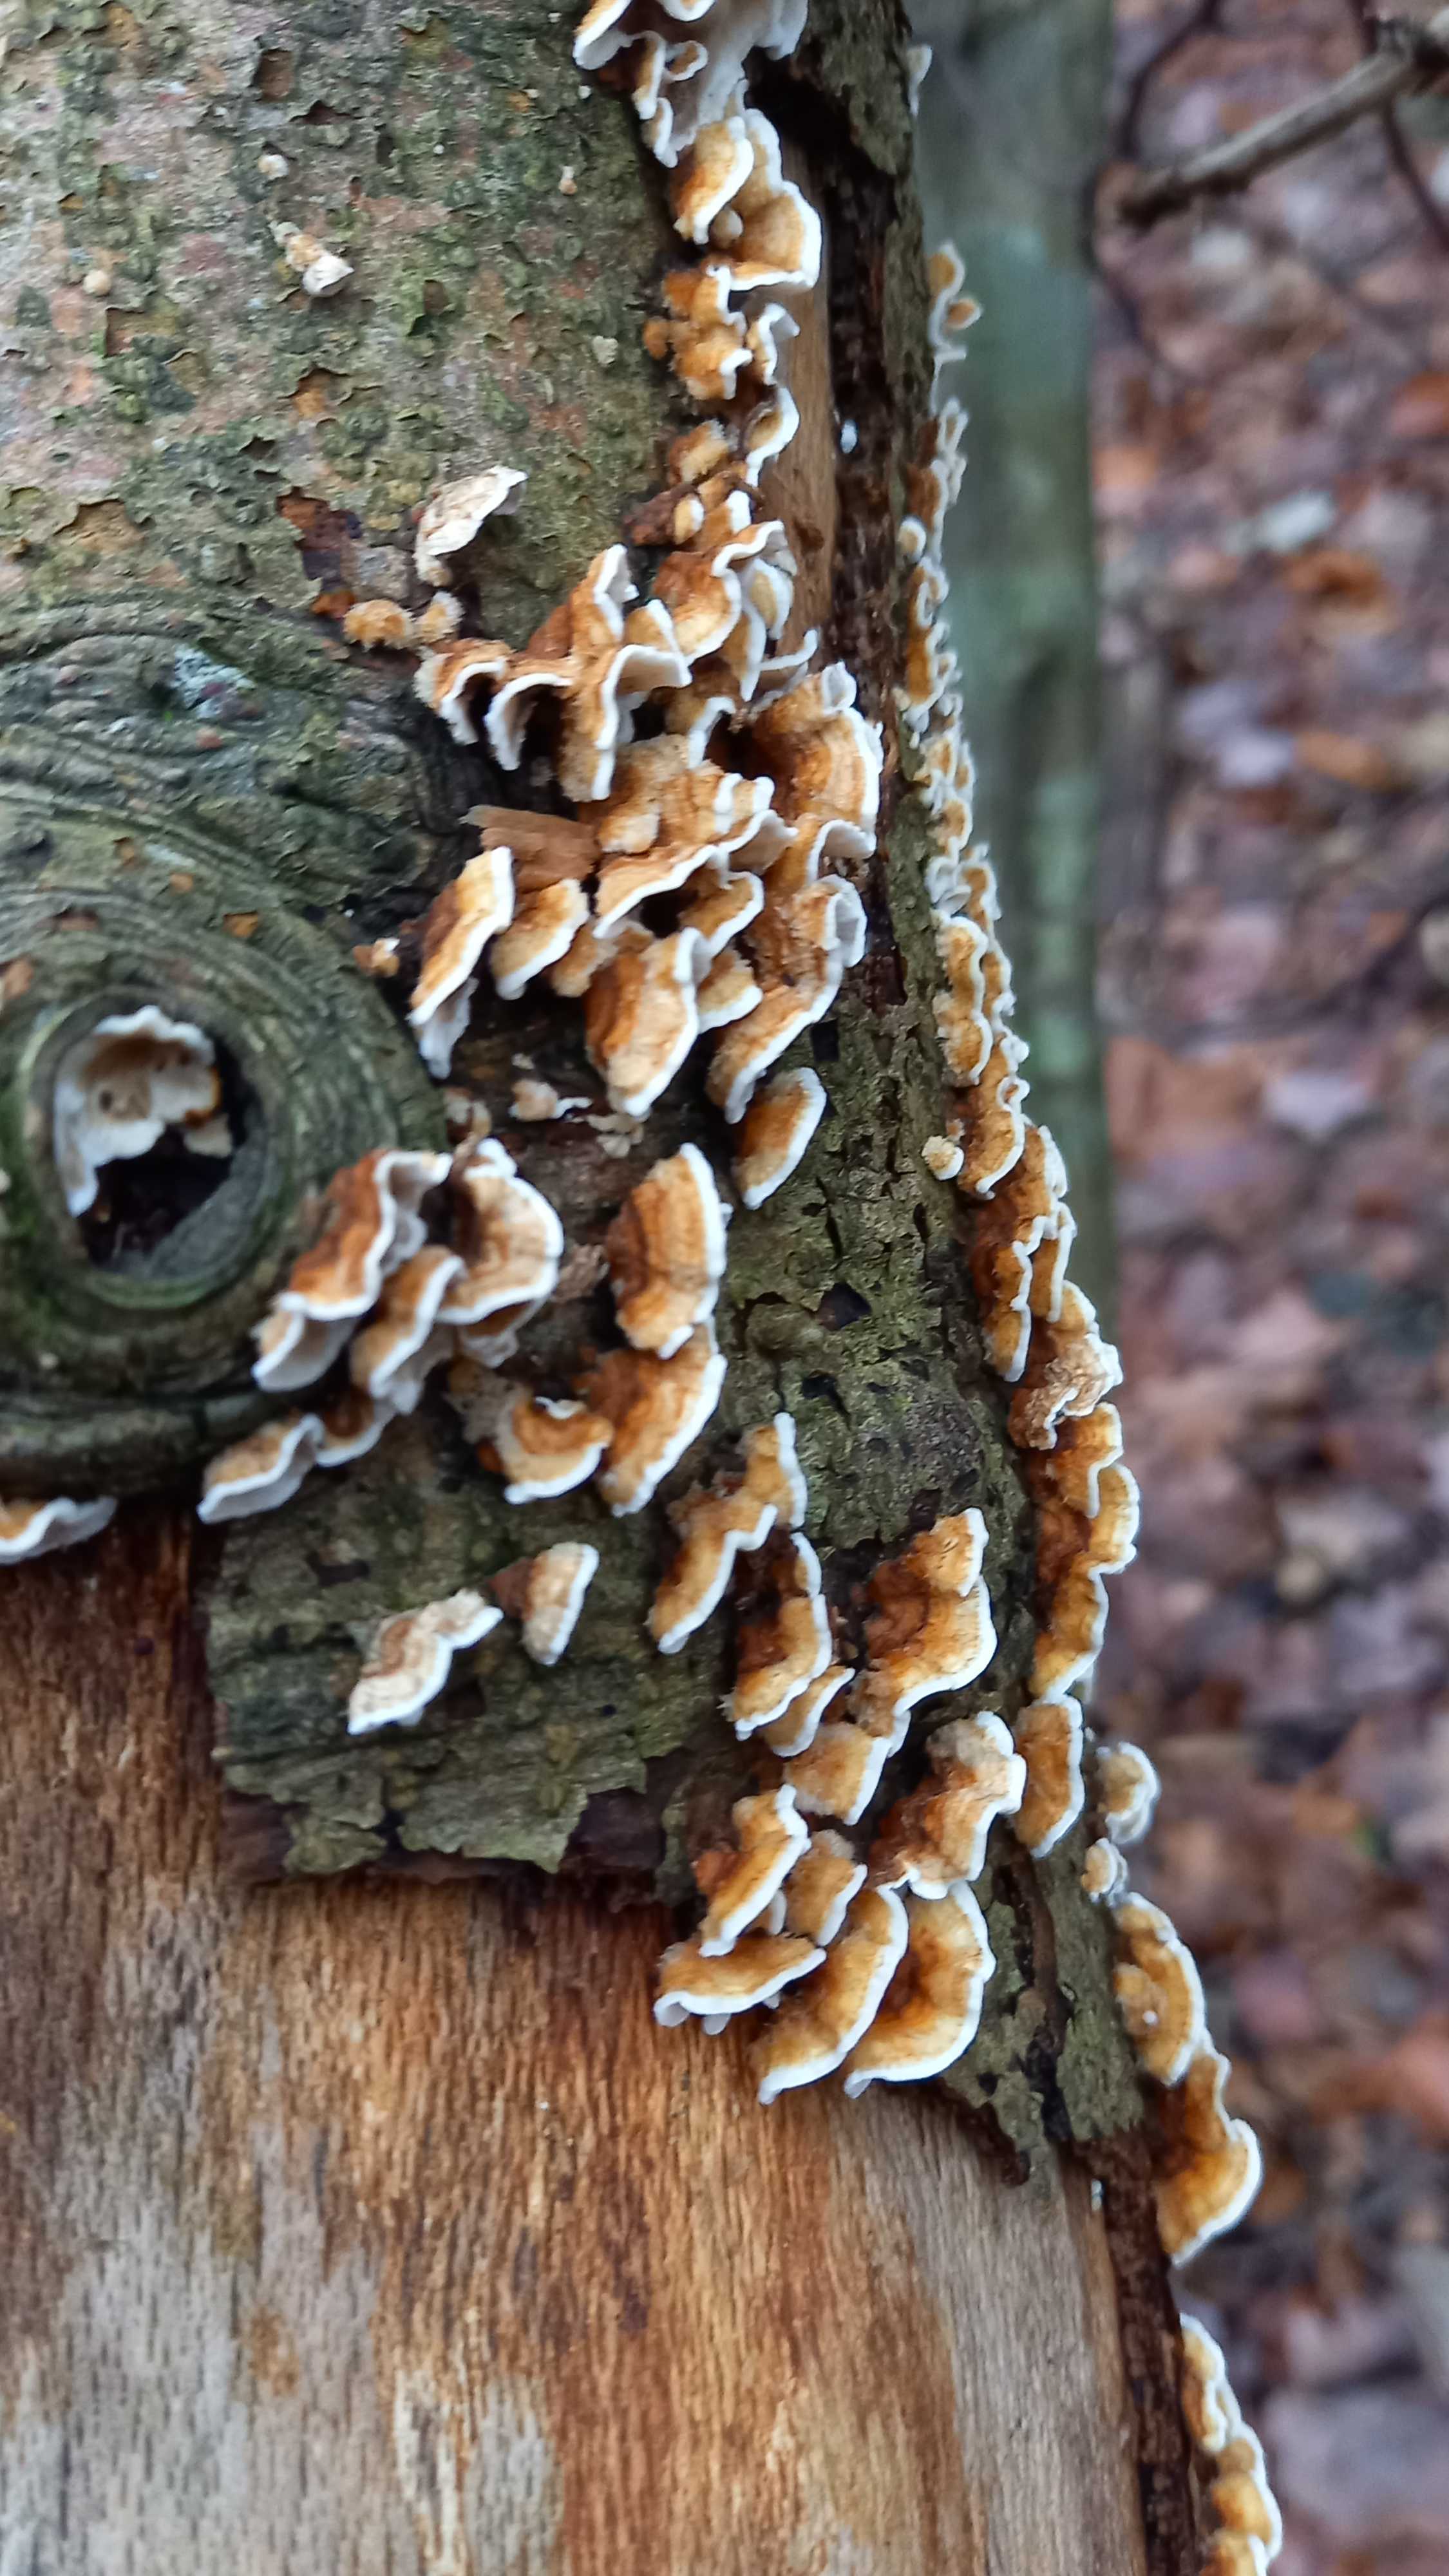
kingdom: Fungi
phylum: Basidiomycota
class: Agaricomycetes
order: Russulales
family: Stereaceae
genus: Stereum
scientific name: Stereum hirsutum
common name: håret lædersvamp
